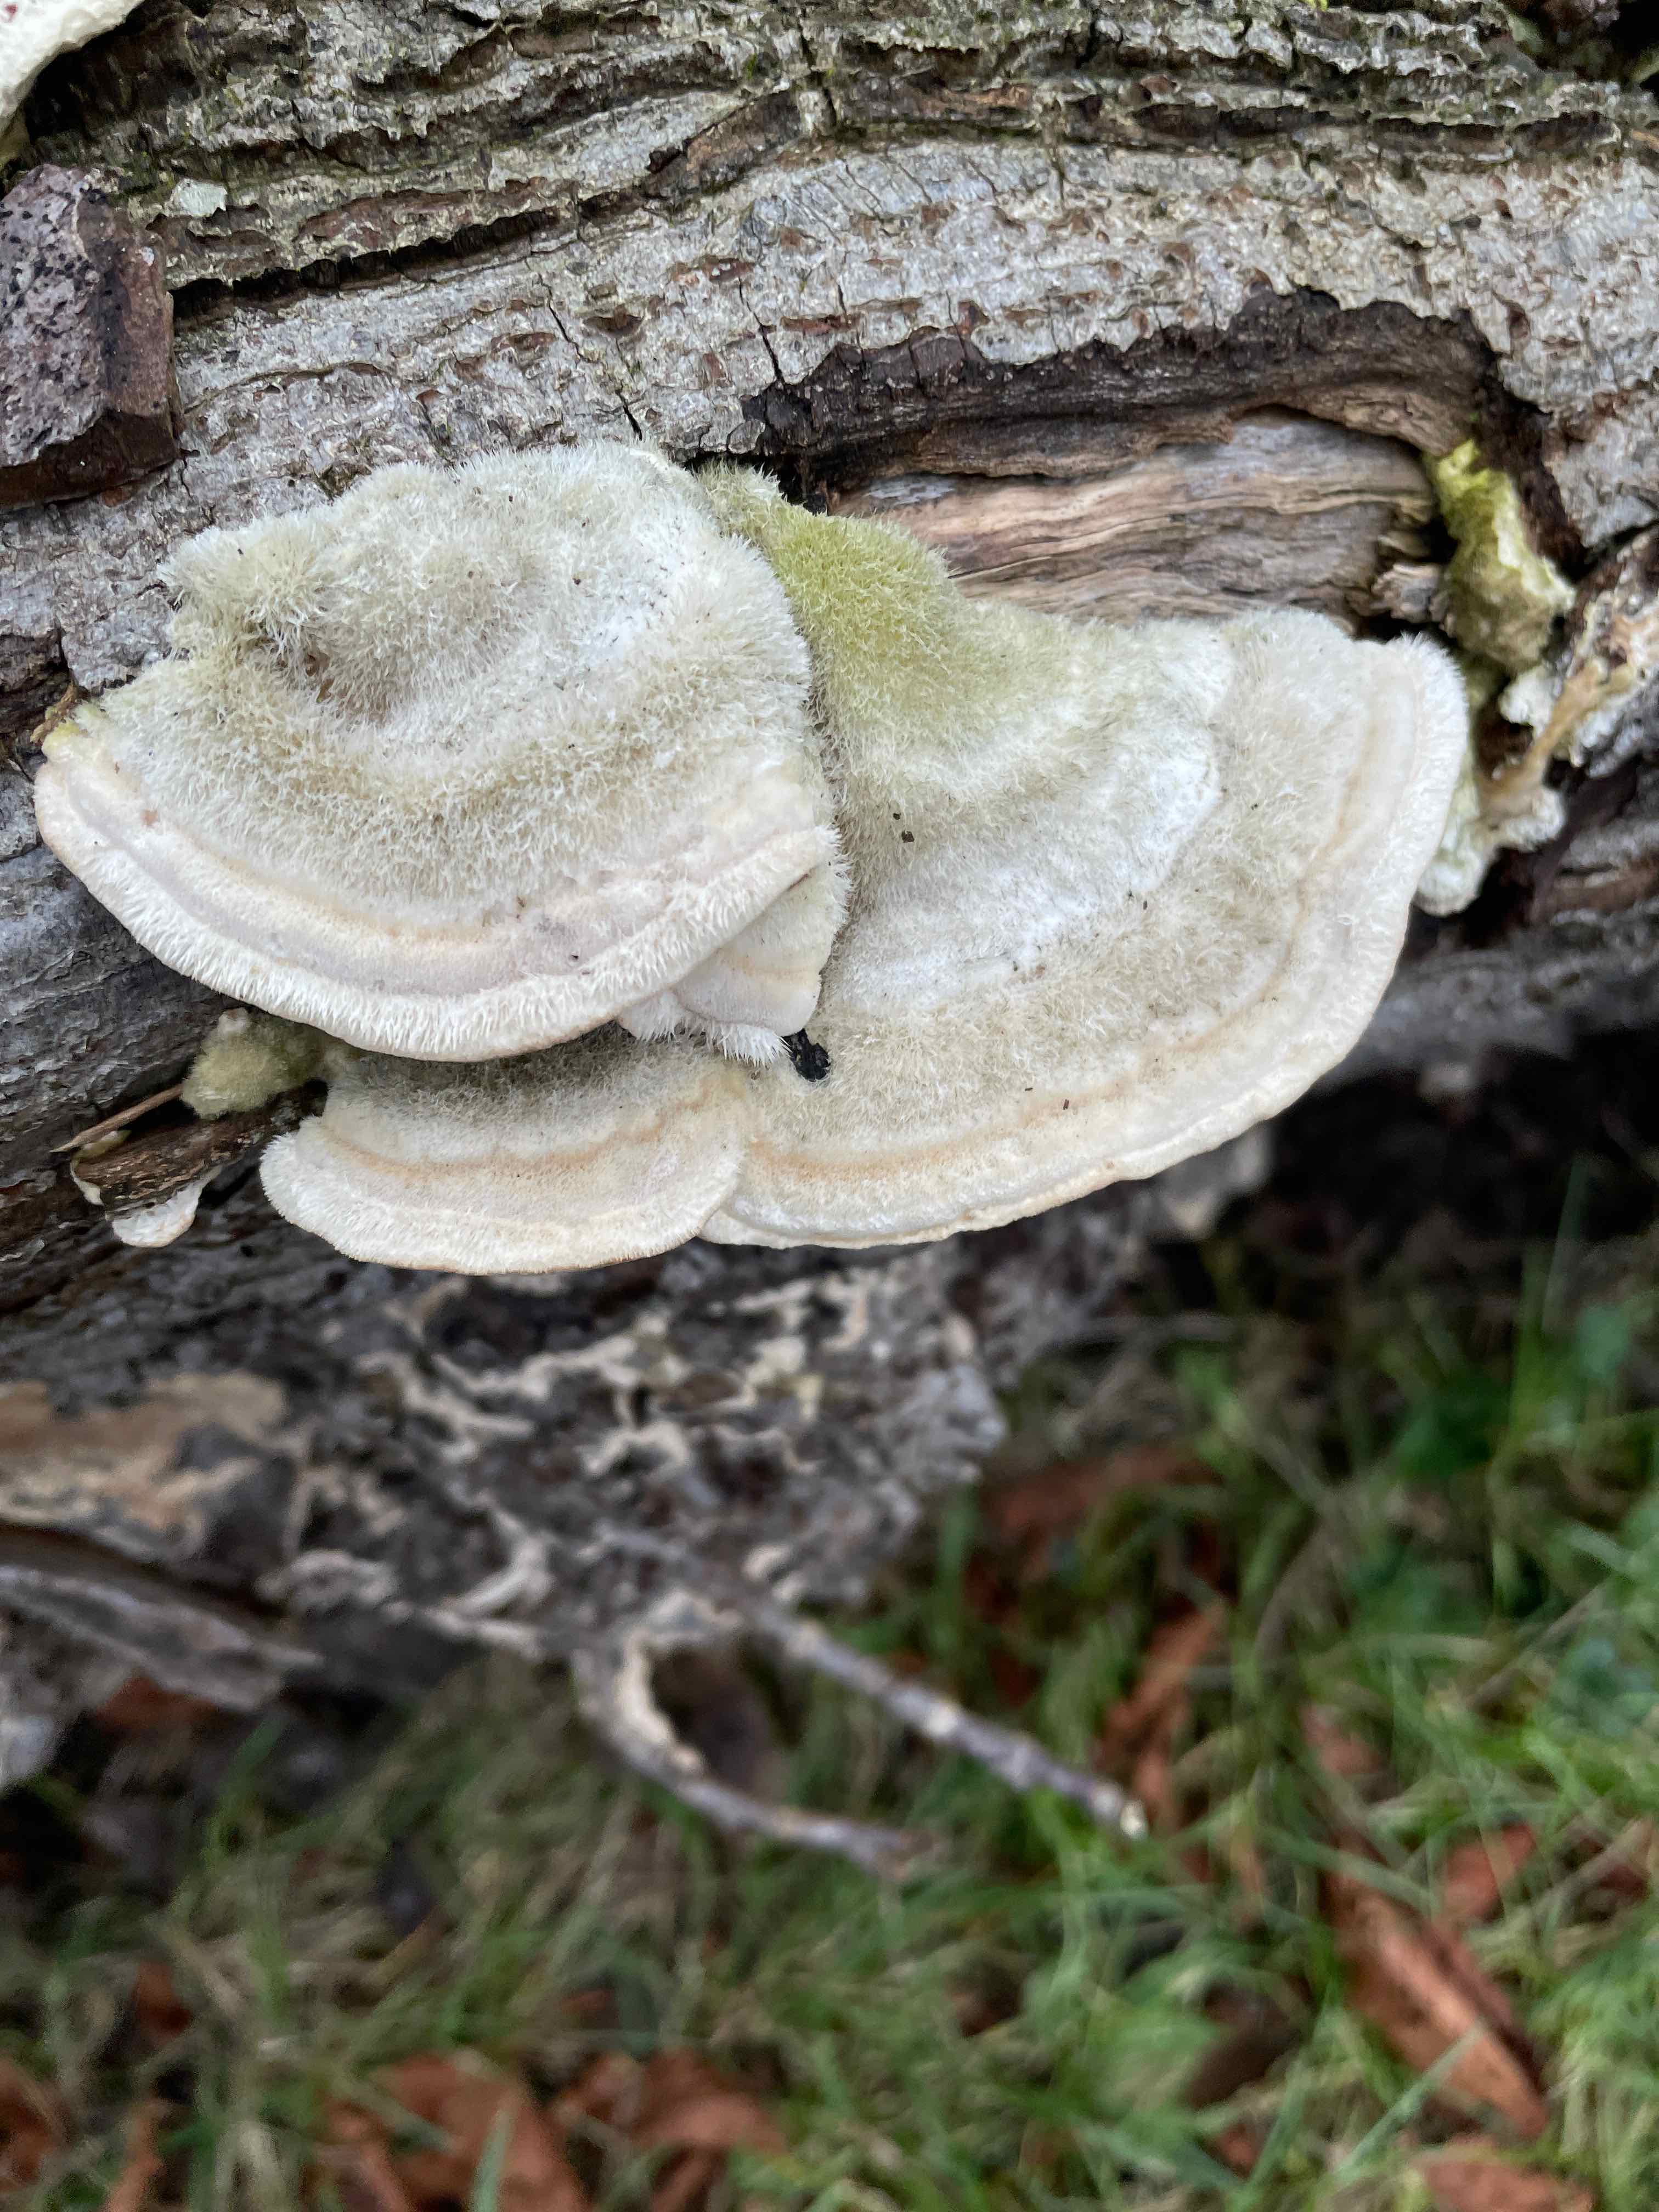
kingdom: Fungi
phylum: Basidiomycota
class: Agaricomycetes
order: Polyporales
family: Polyporaceae
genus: Trametes
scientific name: Trametes hirsuta
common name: håret læderporesvamp
